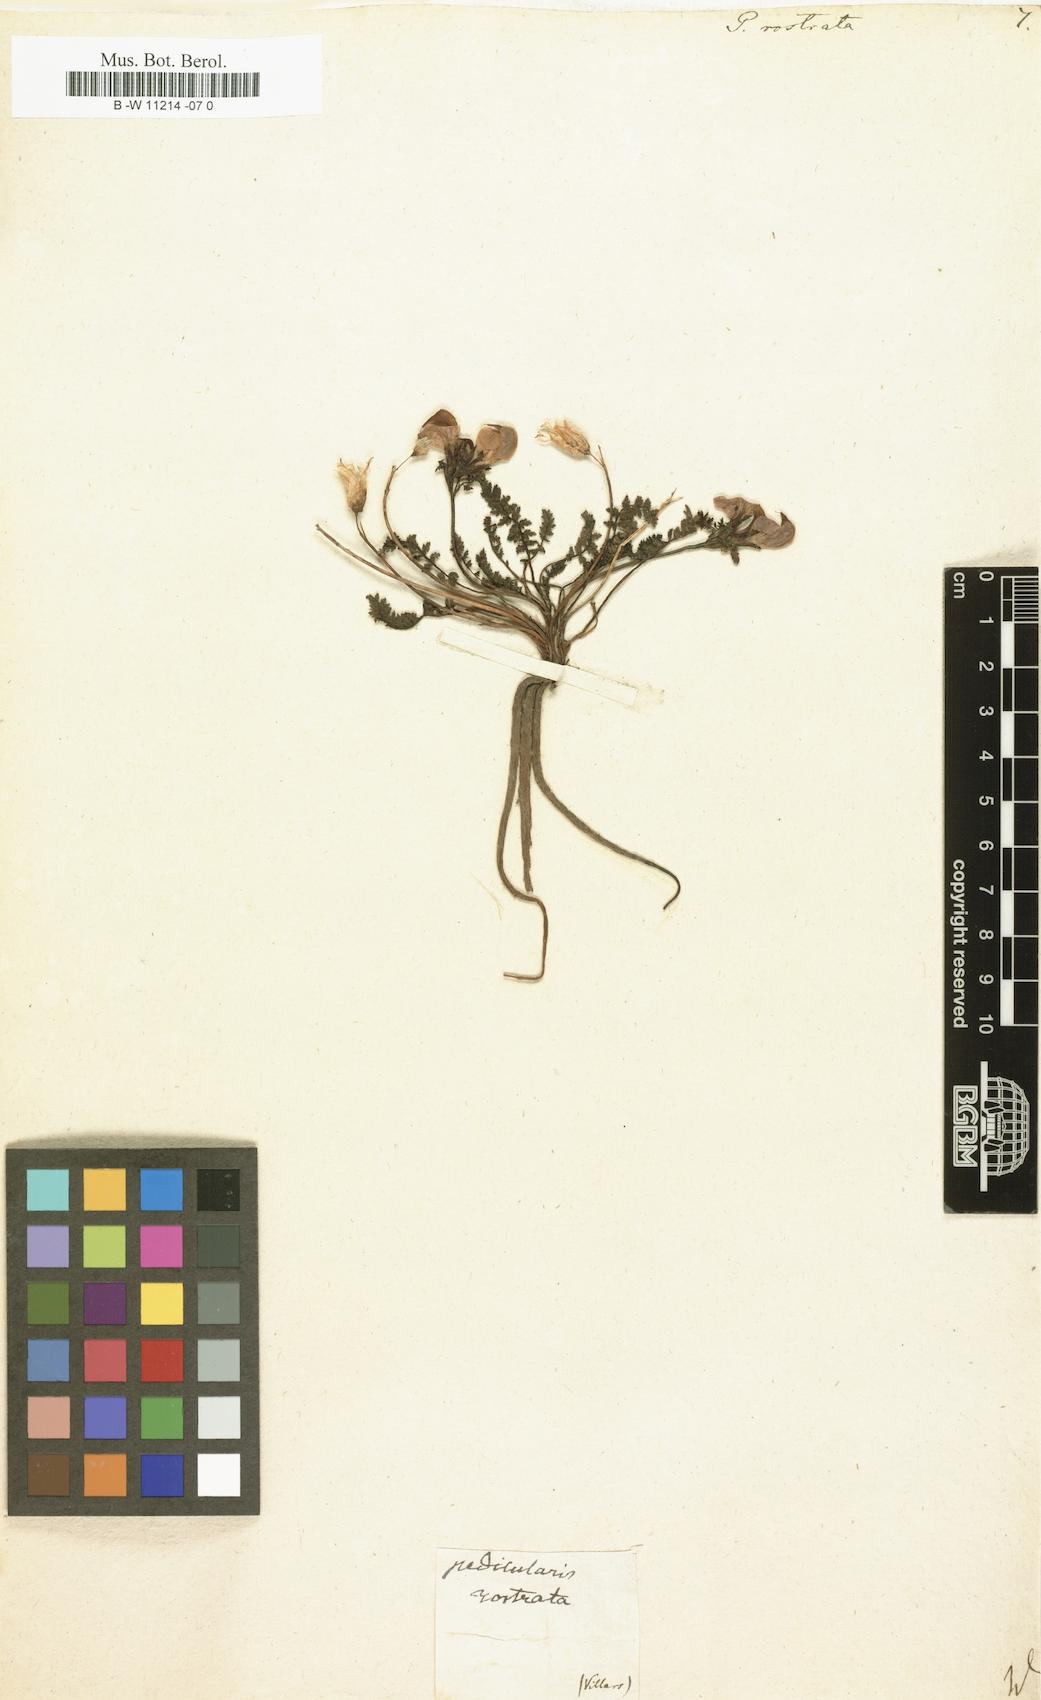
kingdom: Plantae
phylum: Tracheophyta
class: Magnoliopsida
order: Lamiales
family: Orobanchaceae
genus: Pedicularis
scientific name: Pedicularis
